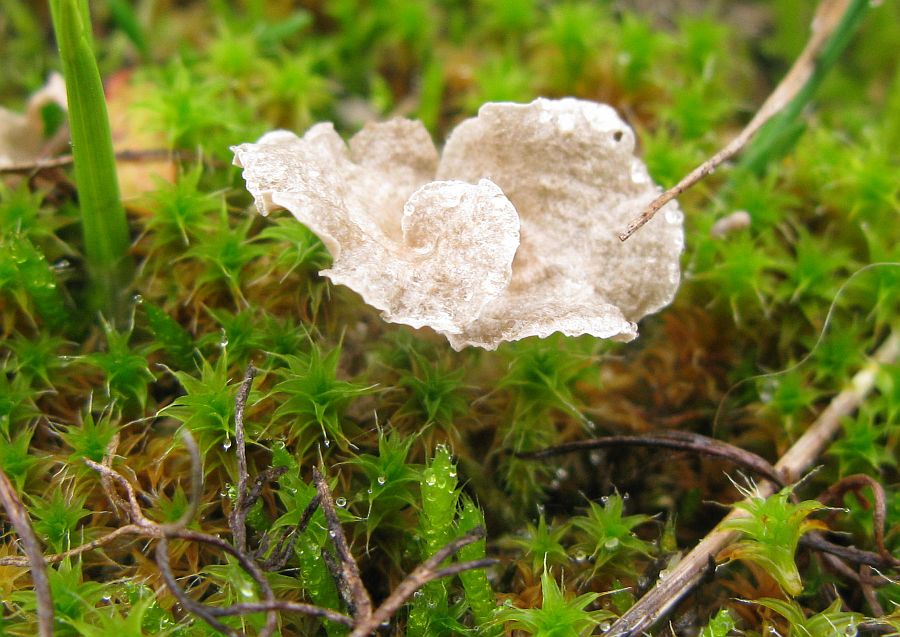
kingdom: Fungi
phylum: Basidiomycota
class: Agaricomycetes
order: Agaricales
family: Hygrophoraceae
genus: Arrhenia
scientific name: Arrhenia spathulata
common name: skæv fontænehat
